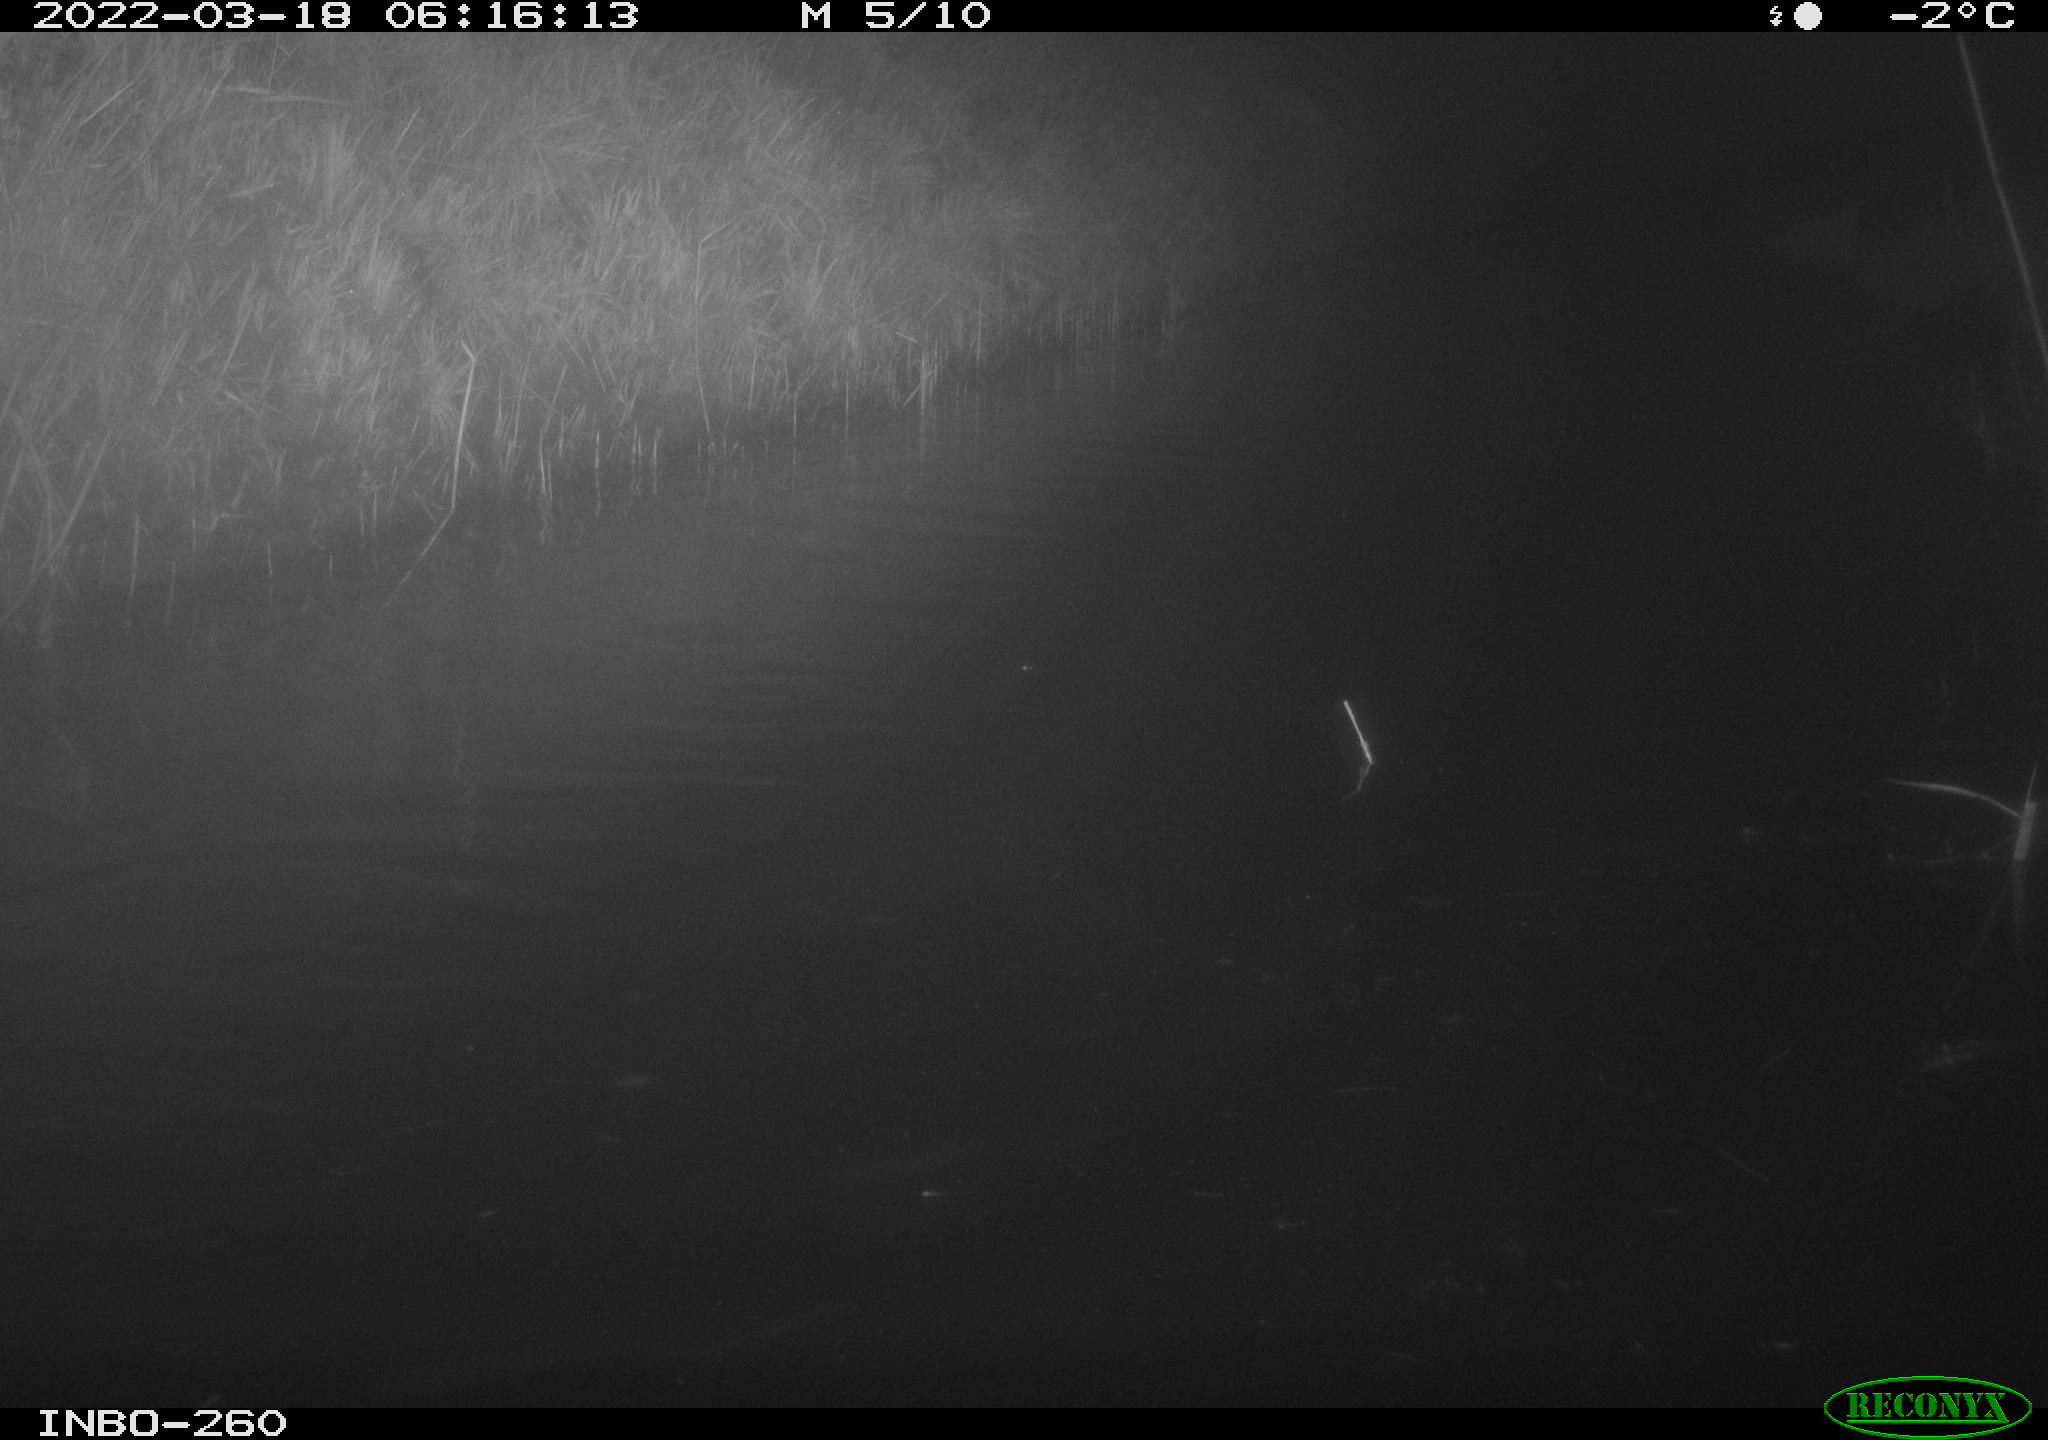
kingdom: Animalia
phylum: Chordata
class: Mammalia
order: Rodentia
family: Cricetidae
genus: Ondatra
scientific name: Ondatra zibethicus
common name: Muskrat
